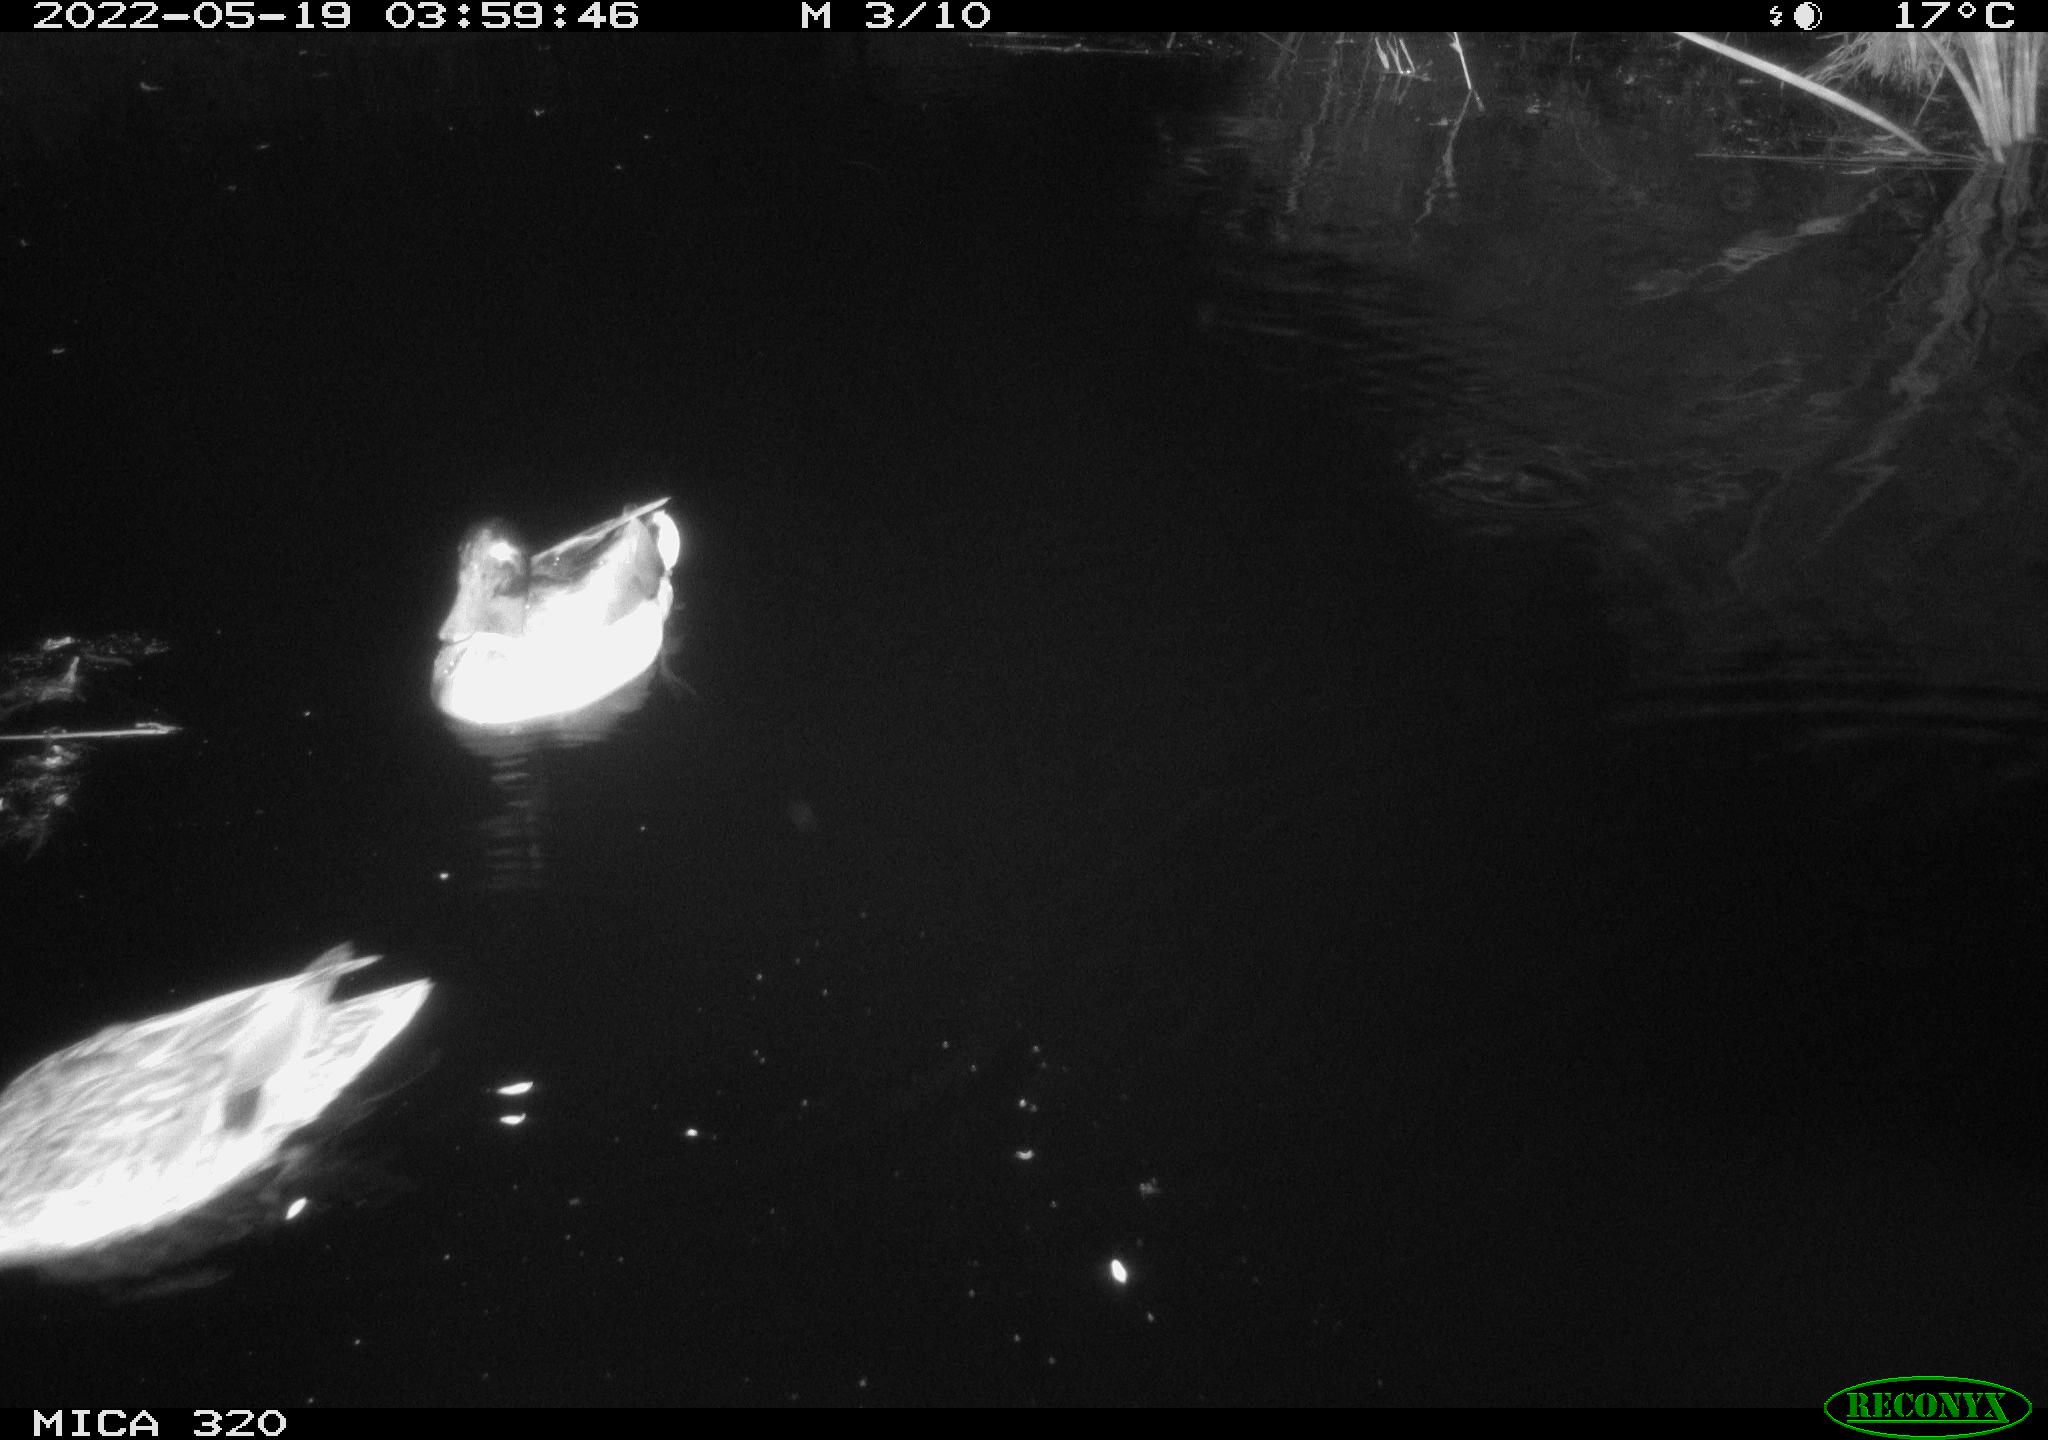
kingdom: Animalia
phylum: Chordata
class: Aves
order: Anseriformes
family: Anatidae
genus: Anas
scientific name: Anas platyrhynchos
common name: Mallard
